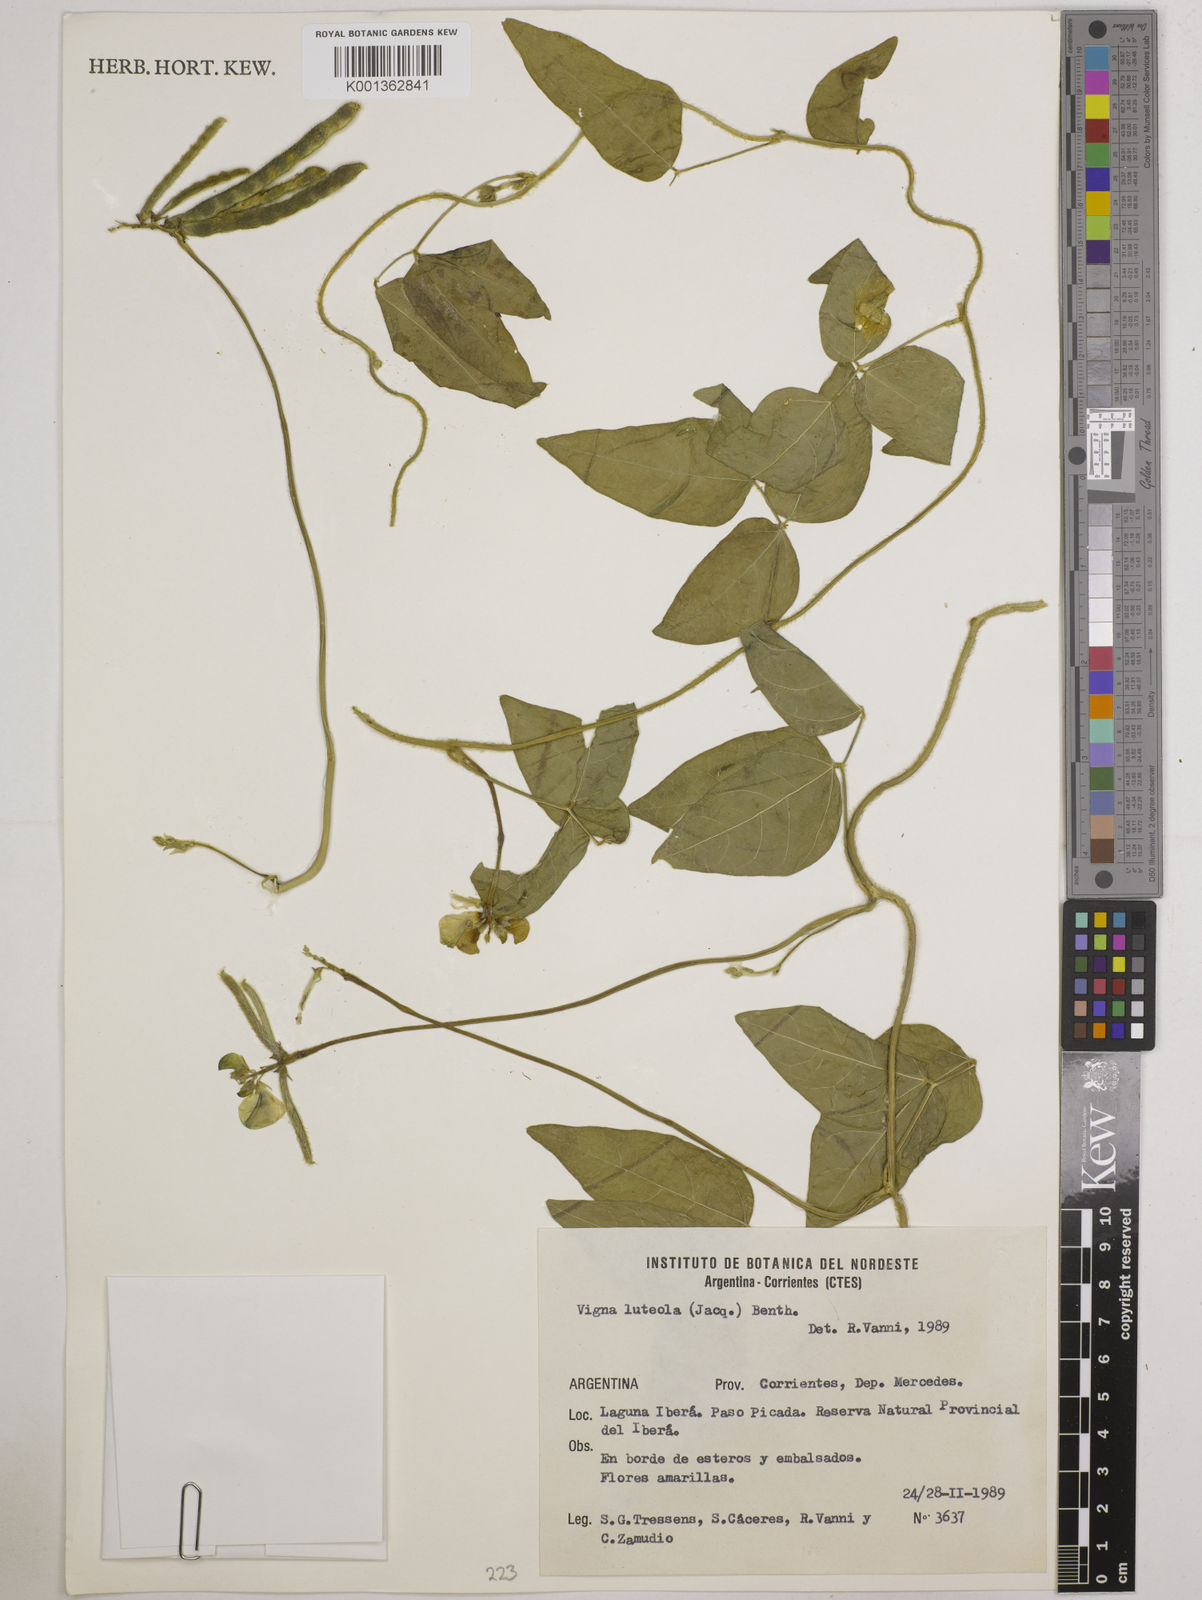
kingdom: Plantae
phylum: Tracheophyta
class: Magnoliopsida
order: Fabales
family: Fabaceae
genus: Vigna
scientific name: Vigna luteola
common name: Hairypod cowpea
